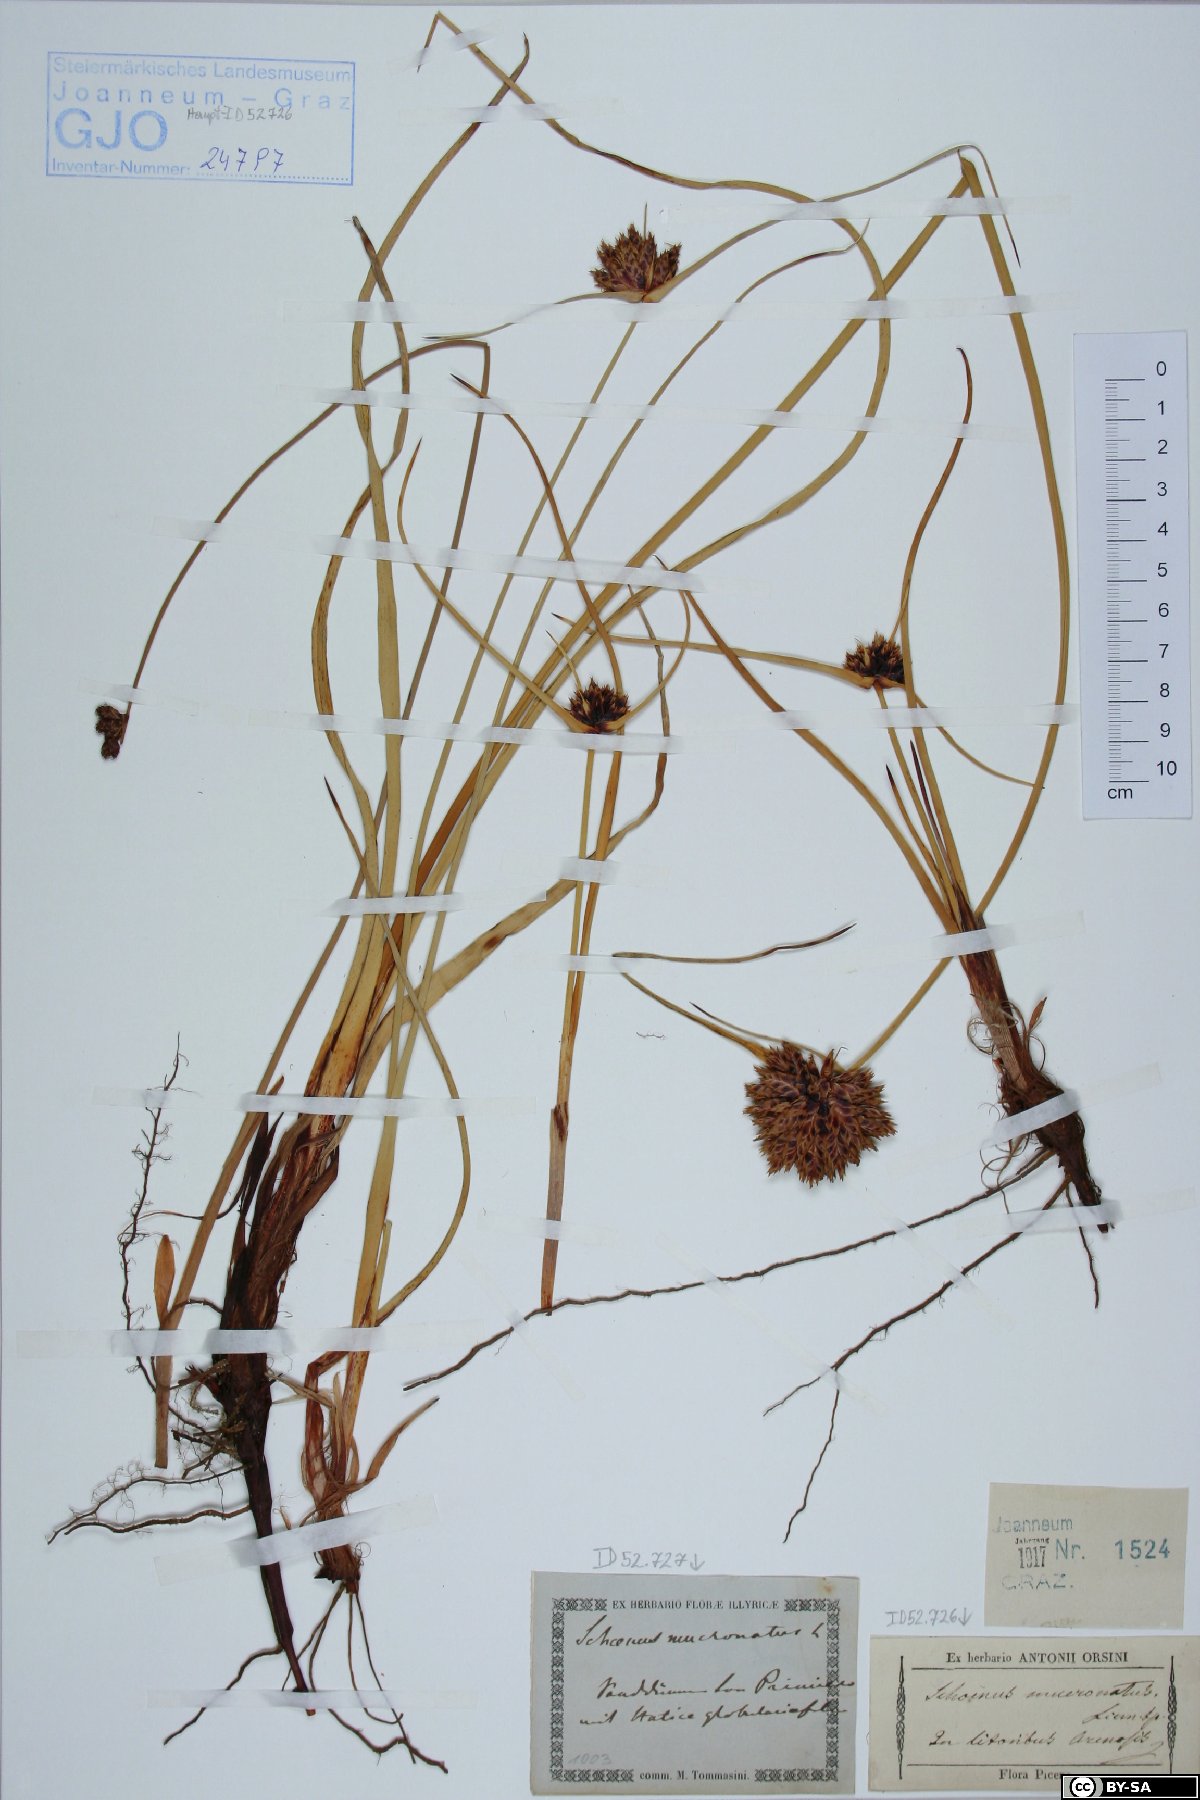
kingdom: Plantae
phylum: Tracheophyta
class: Liliopsida
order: Poales
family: Cyperaceae
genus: Cyperus
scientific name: Cyperus capitatus
